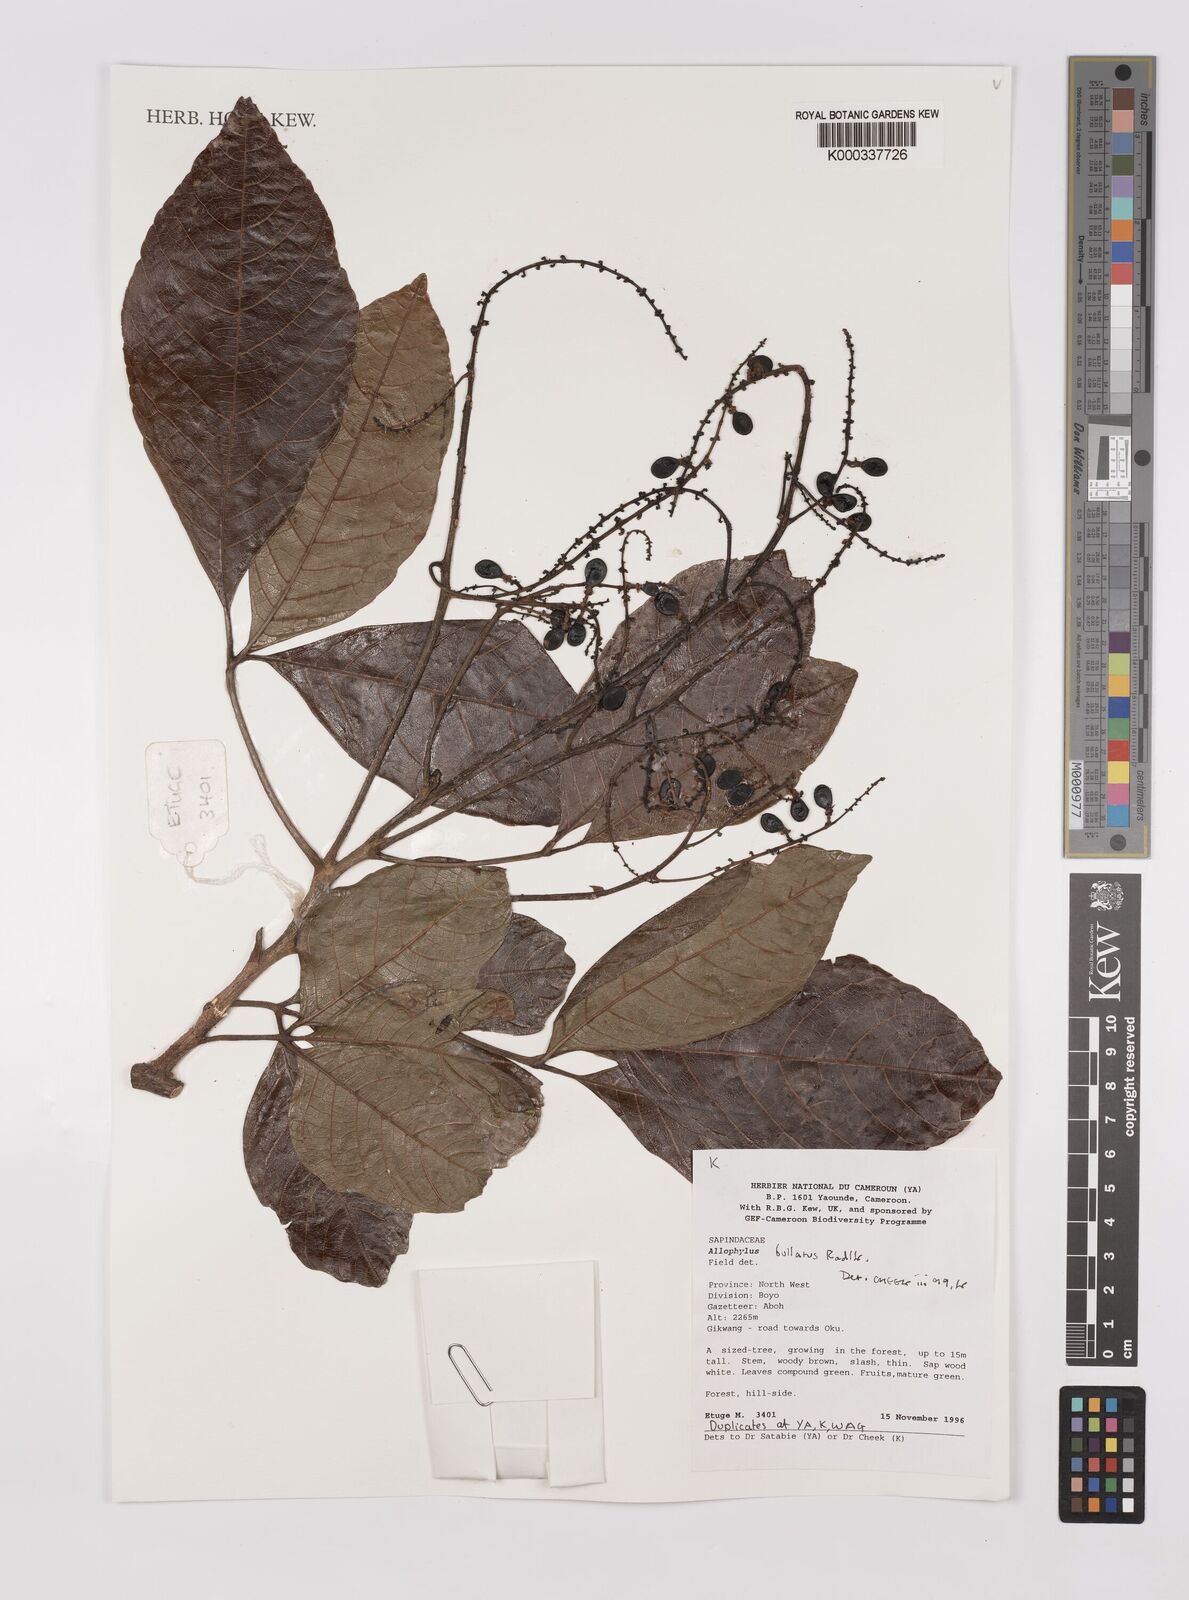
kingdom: Plantae
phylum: Tracheophyta
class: Magnoliopsida
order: Sapindales
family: Sapindaceae
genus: Allophylus
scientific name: Allophylus bullatus
